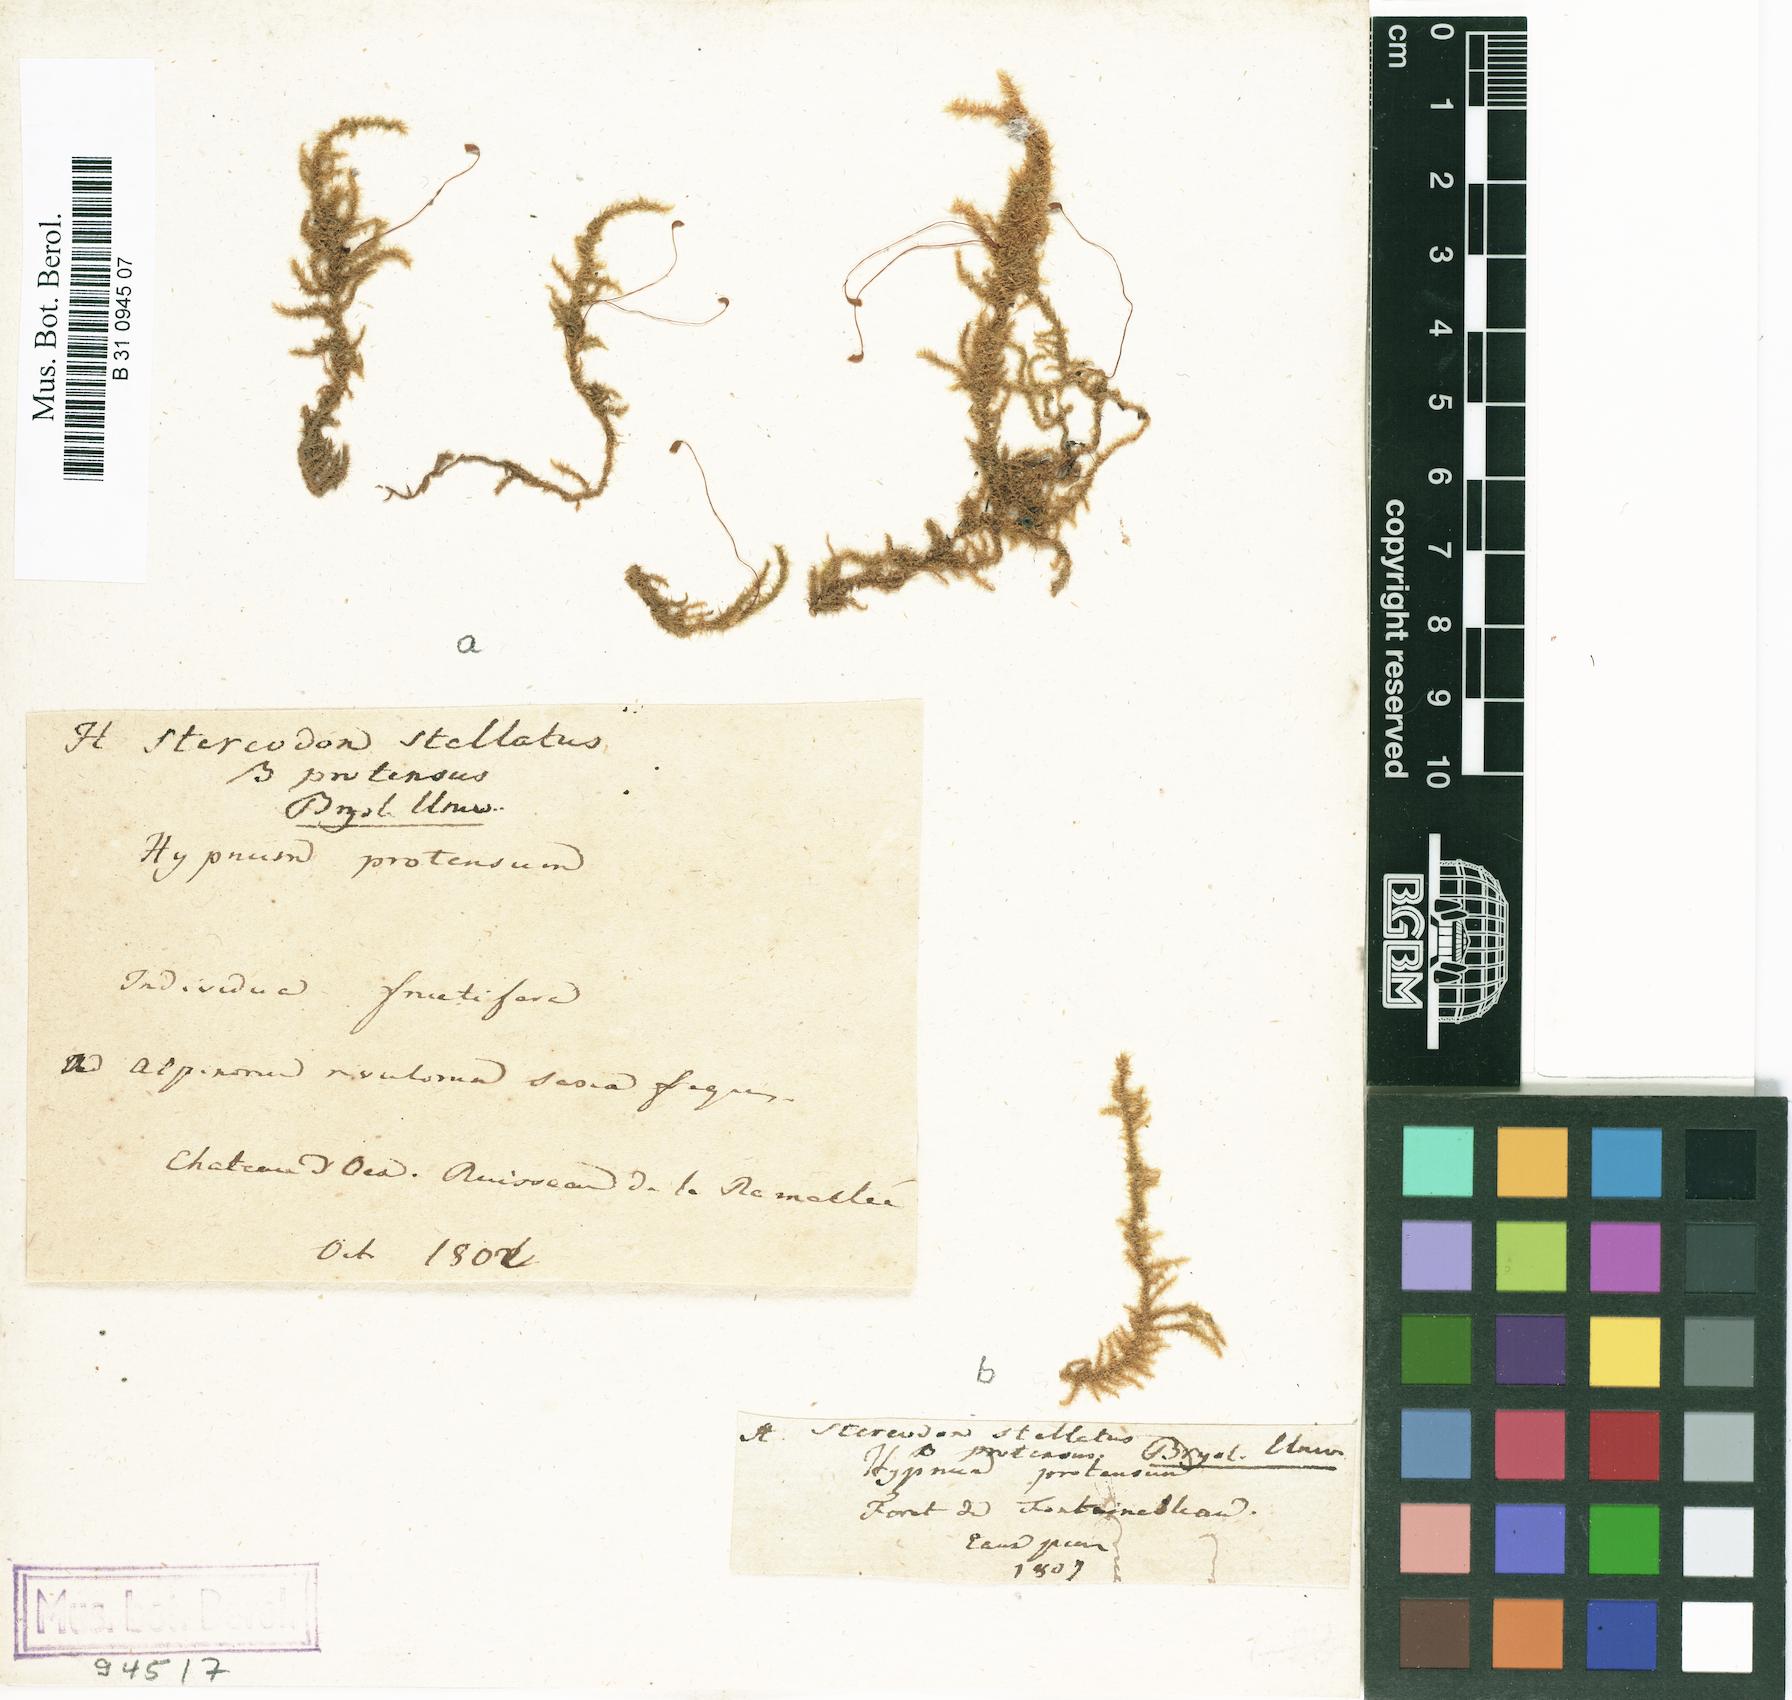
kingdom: Plantae
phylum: Bryophyta
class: Bryopsida
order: Hypnales
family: Amblystegiaceae
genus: Campylium
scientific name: Campylium stellatum
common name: Yellow starry fen moss
